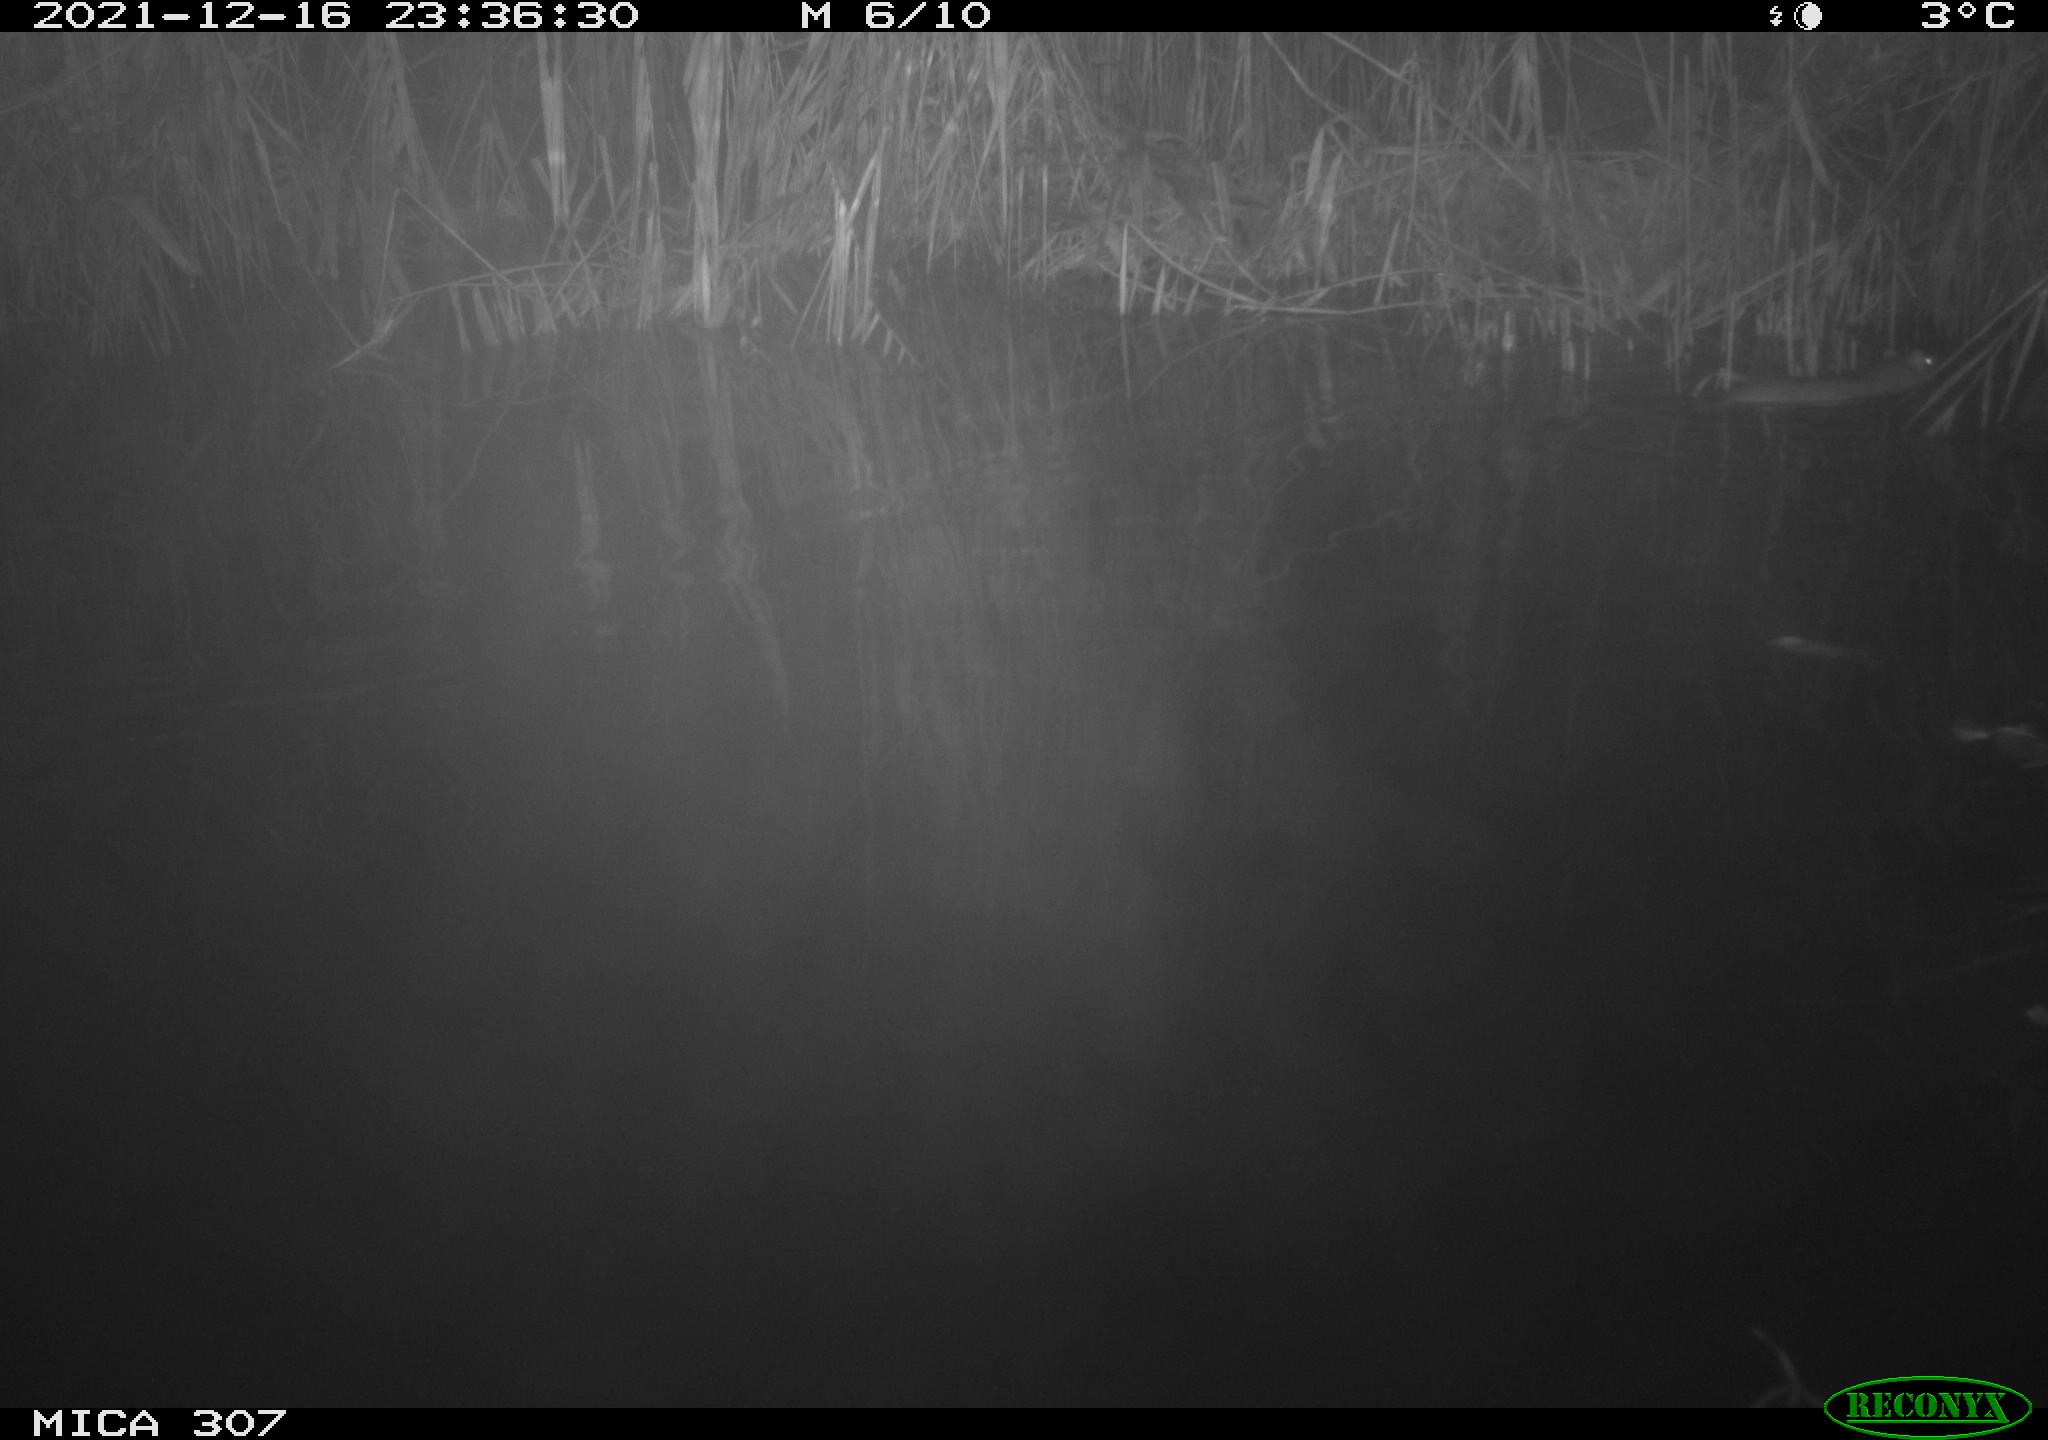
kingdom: Animalia
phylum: Chordata
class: Mammalia
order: Rodentia
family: Muridae
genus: Rattus
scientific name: Rattus norvegicus
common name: Brown rat
